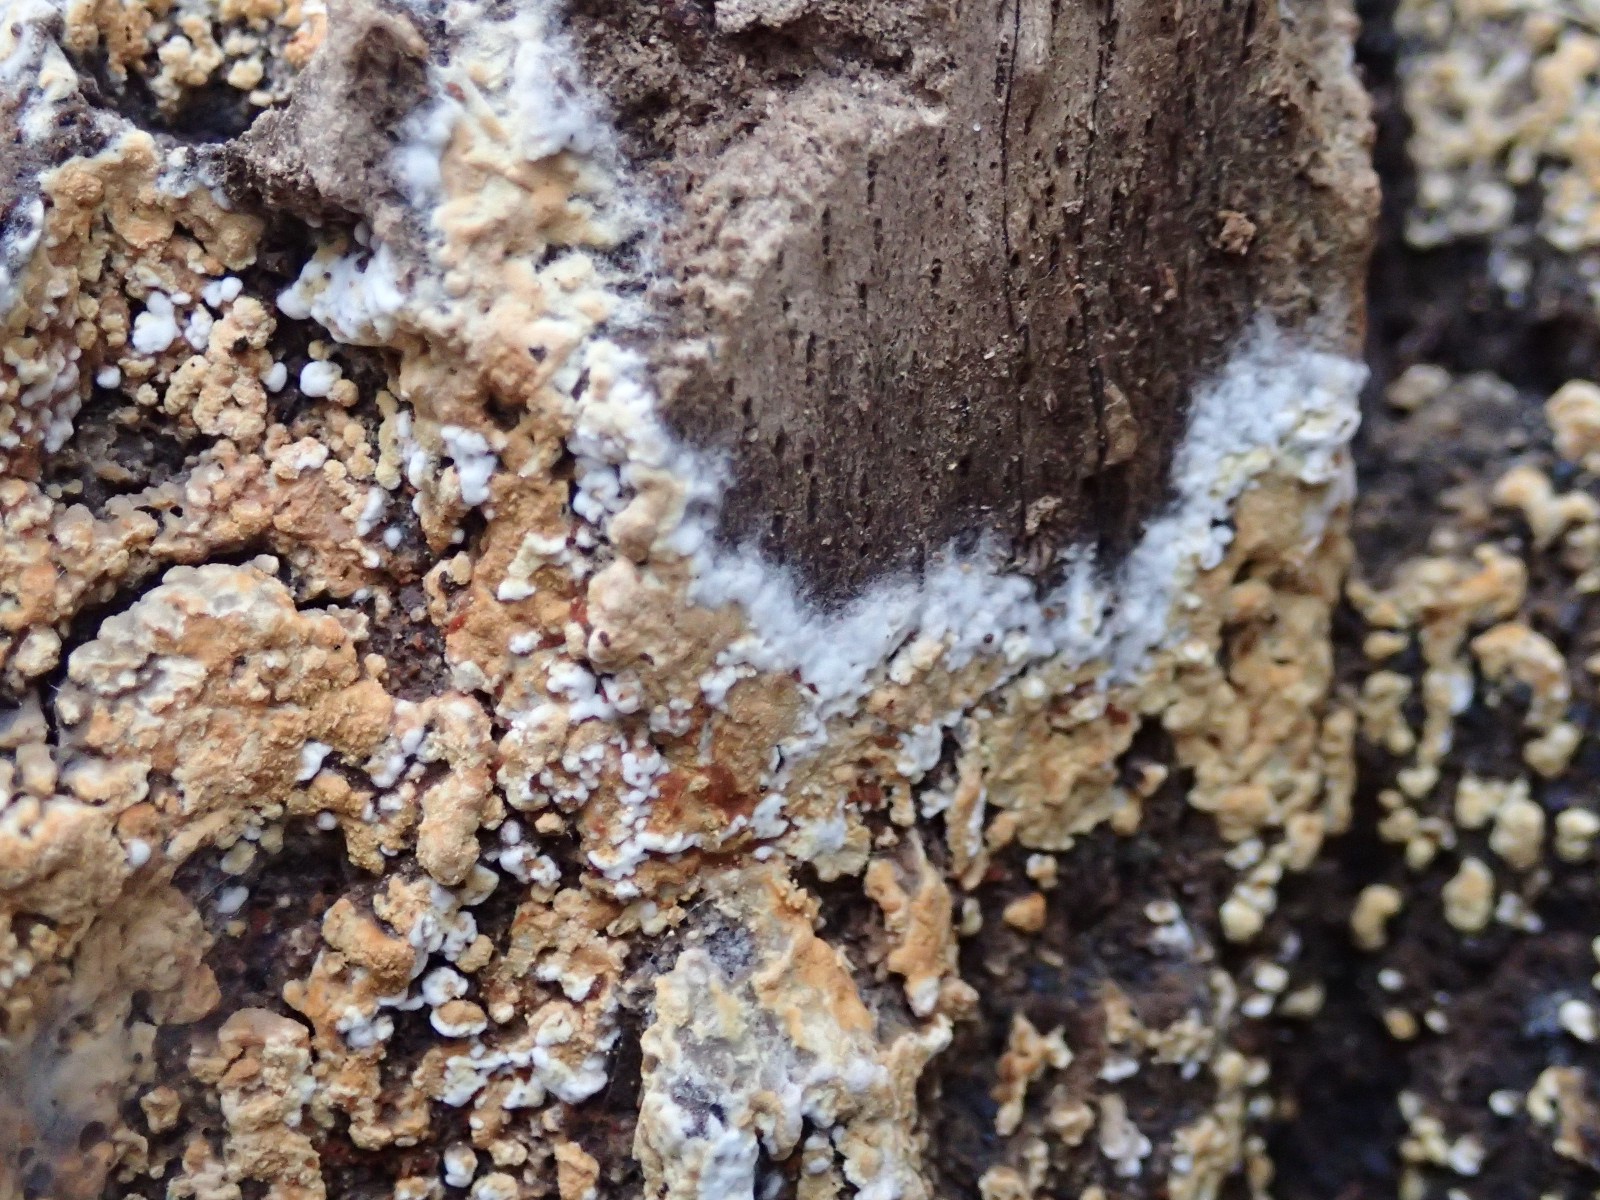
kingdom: Fungi
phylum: Basidiomycota
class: Agaricomycetes
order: Cantharellales
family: Botryobasidiaceae
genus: Botryobasidium
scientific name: Botryobasidium aureum
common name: gylden spindhinde
